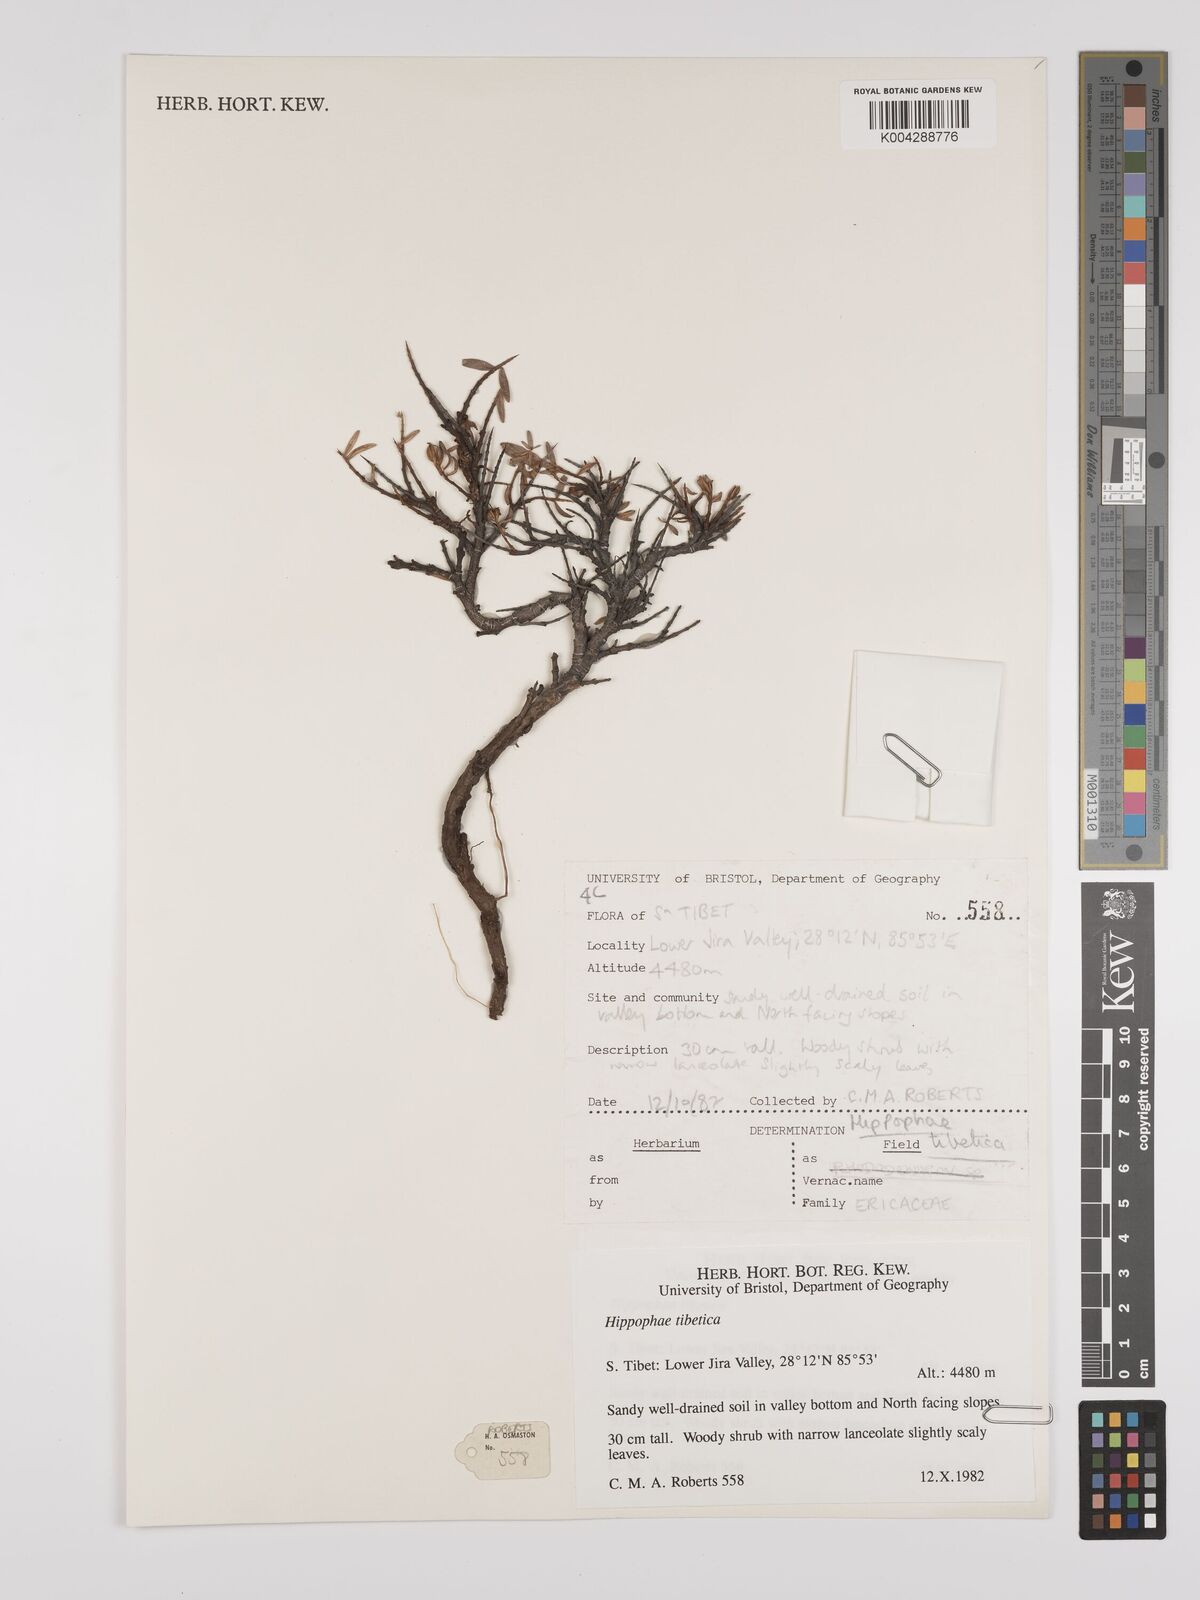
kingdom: Plantae
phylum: Tracheophyta
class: Magnoliopsida
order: Rosales
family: Elaeagnaceae
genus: Hippophae
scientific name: Hippophae
